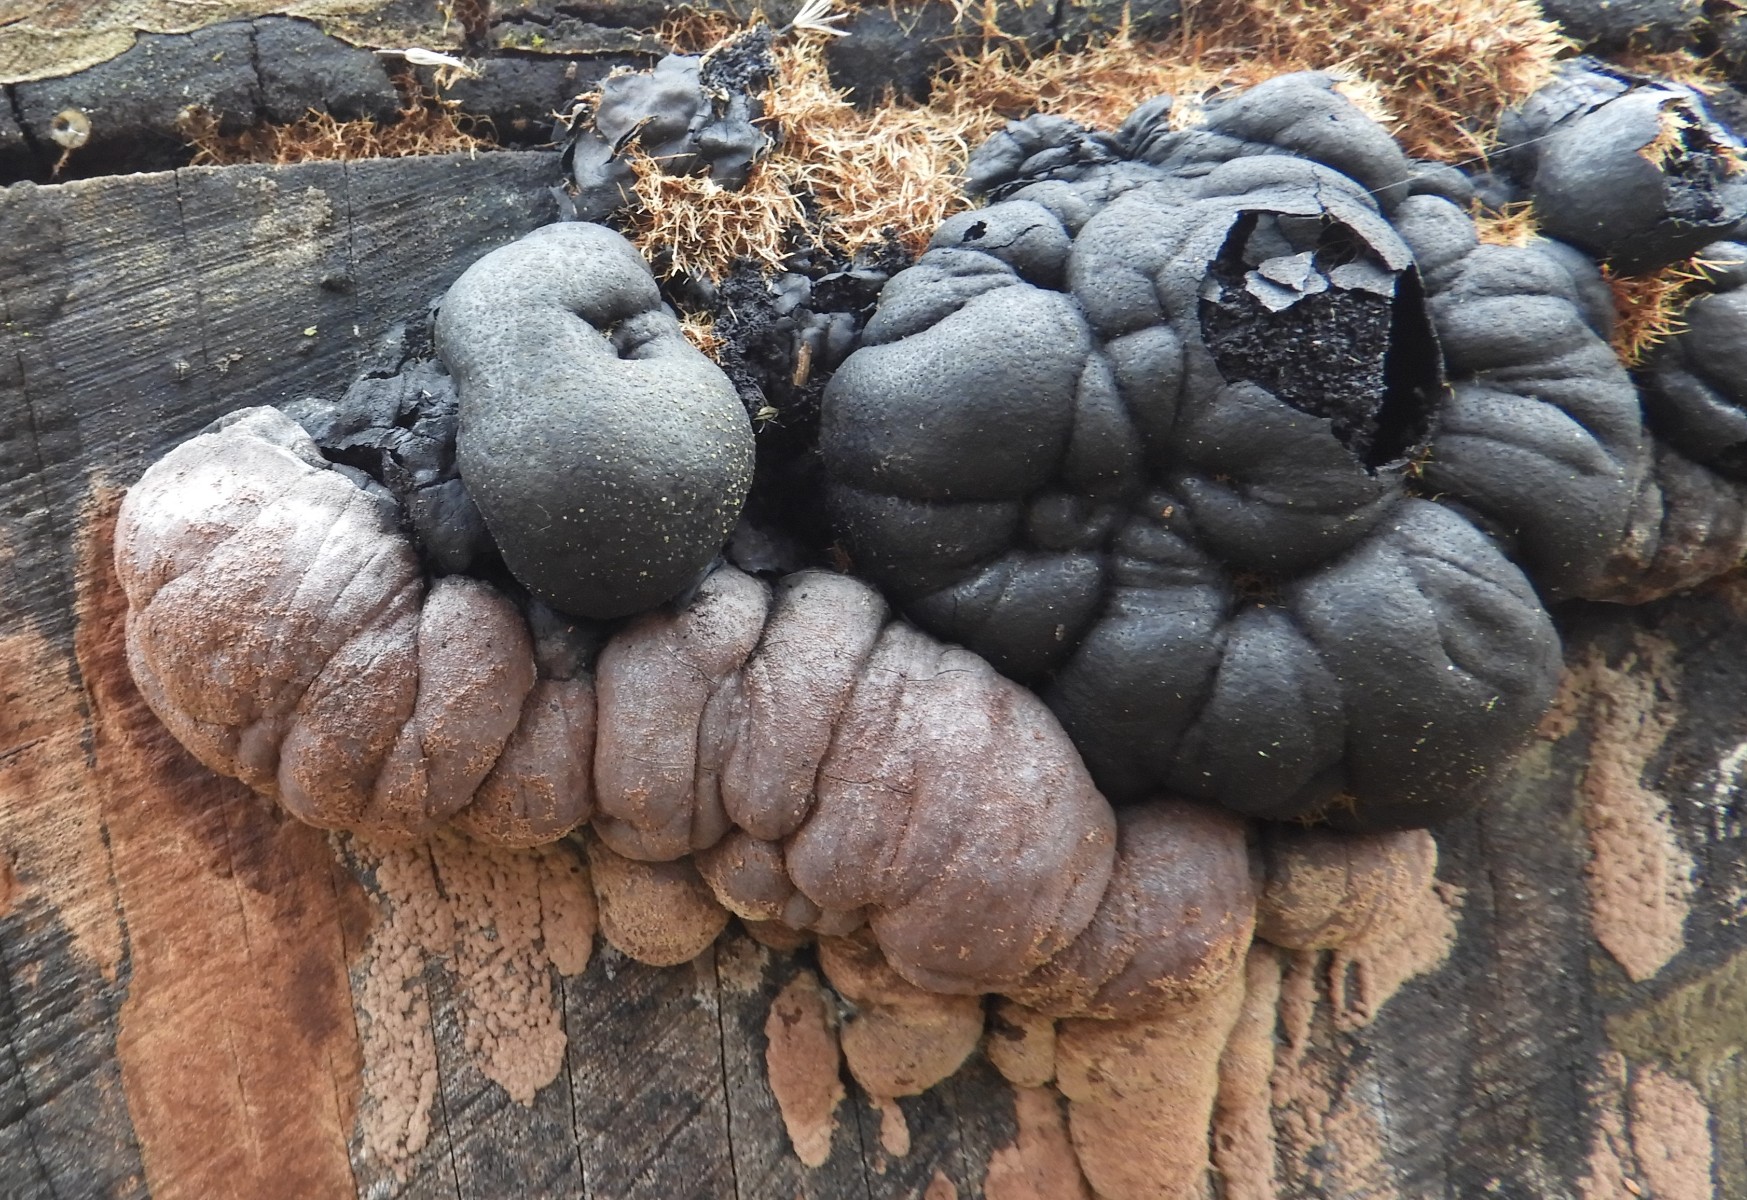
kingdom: Fungi
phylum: Ascomycota
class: Sordariomycetes
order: Xylariales
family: Hypoxylaceae
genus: Daldinia
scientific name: Daldinia pyrenaica
